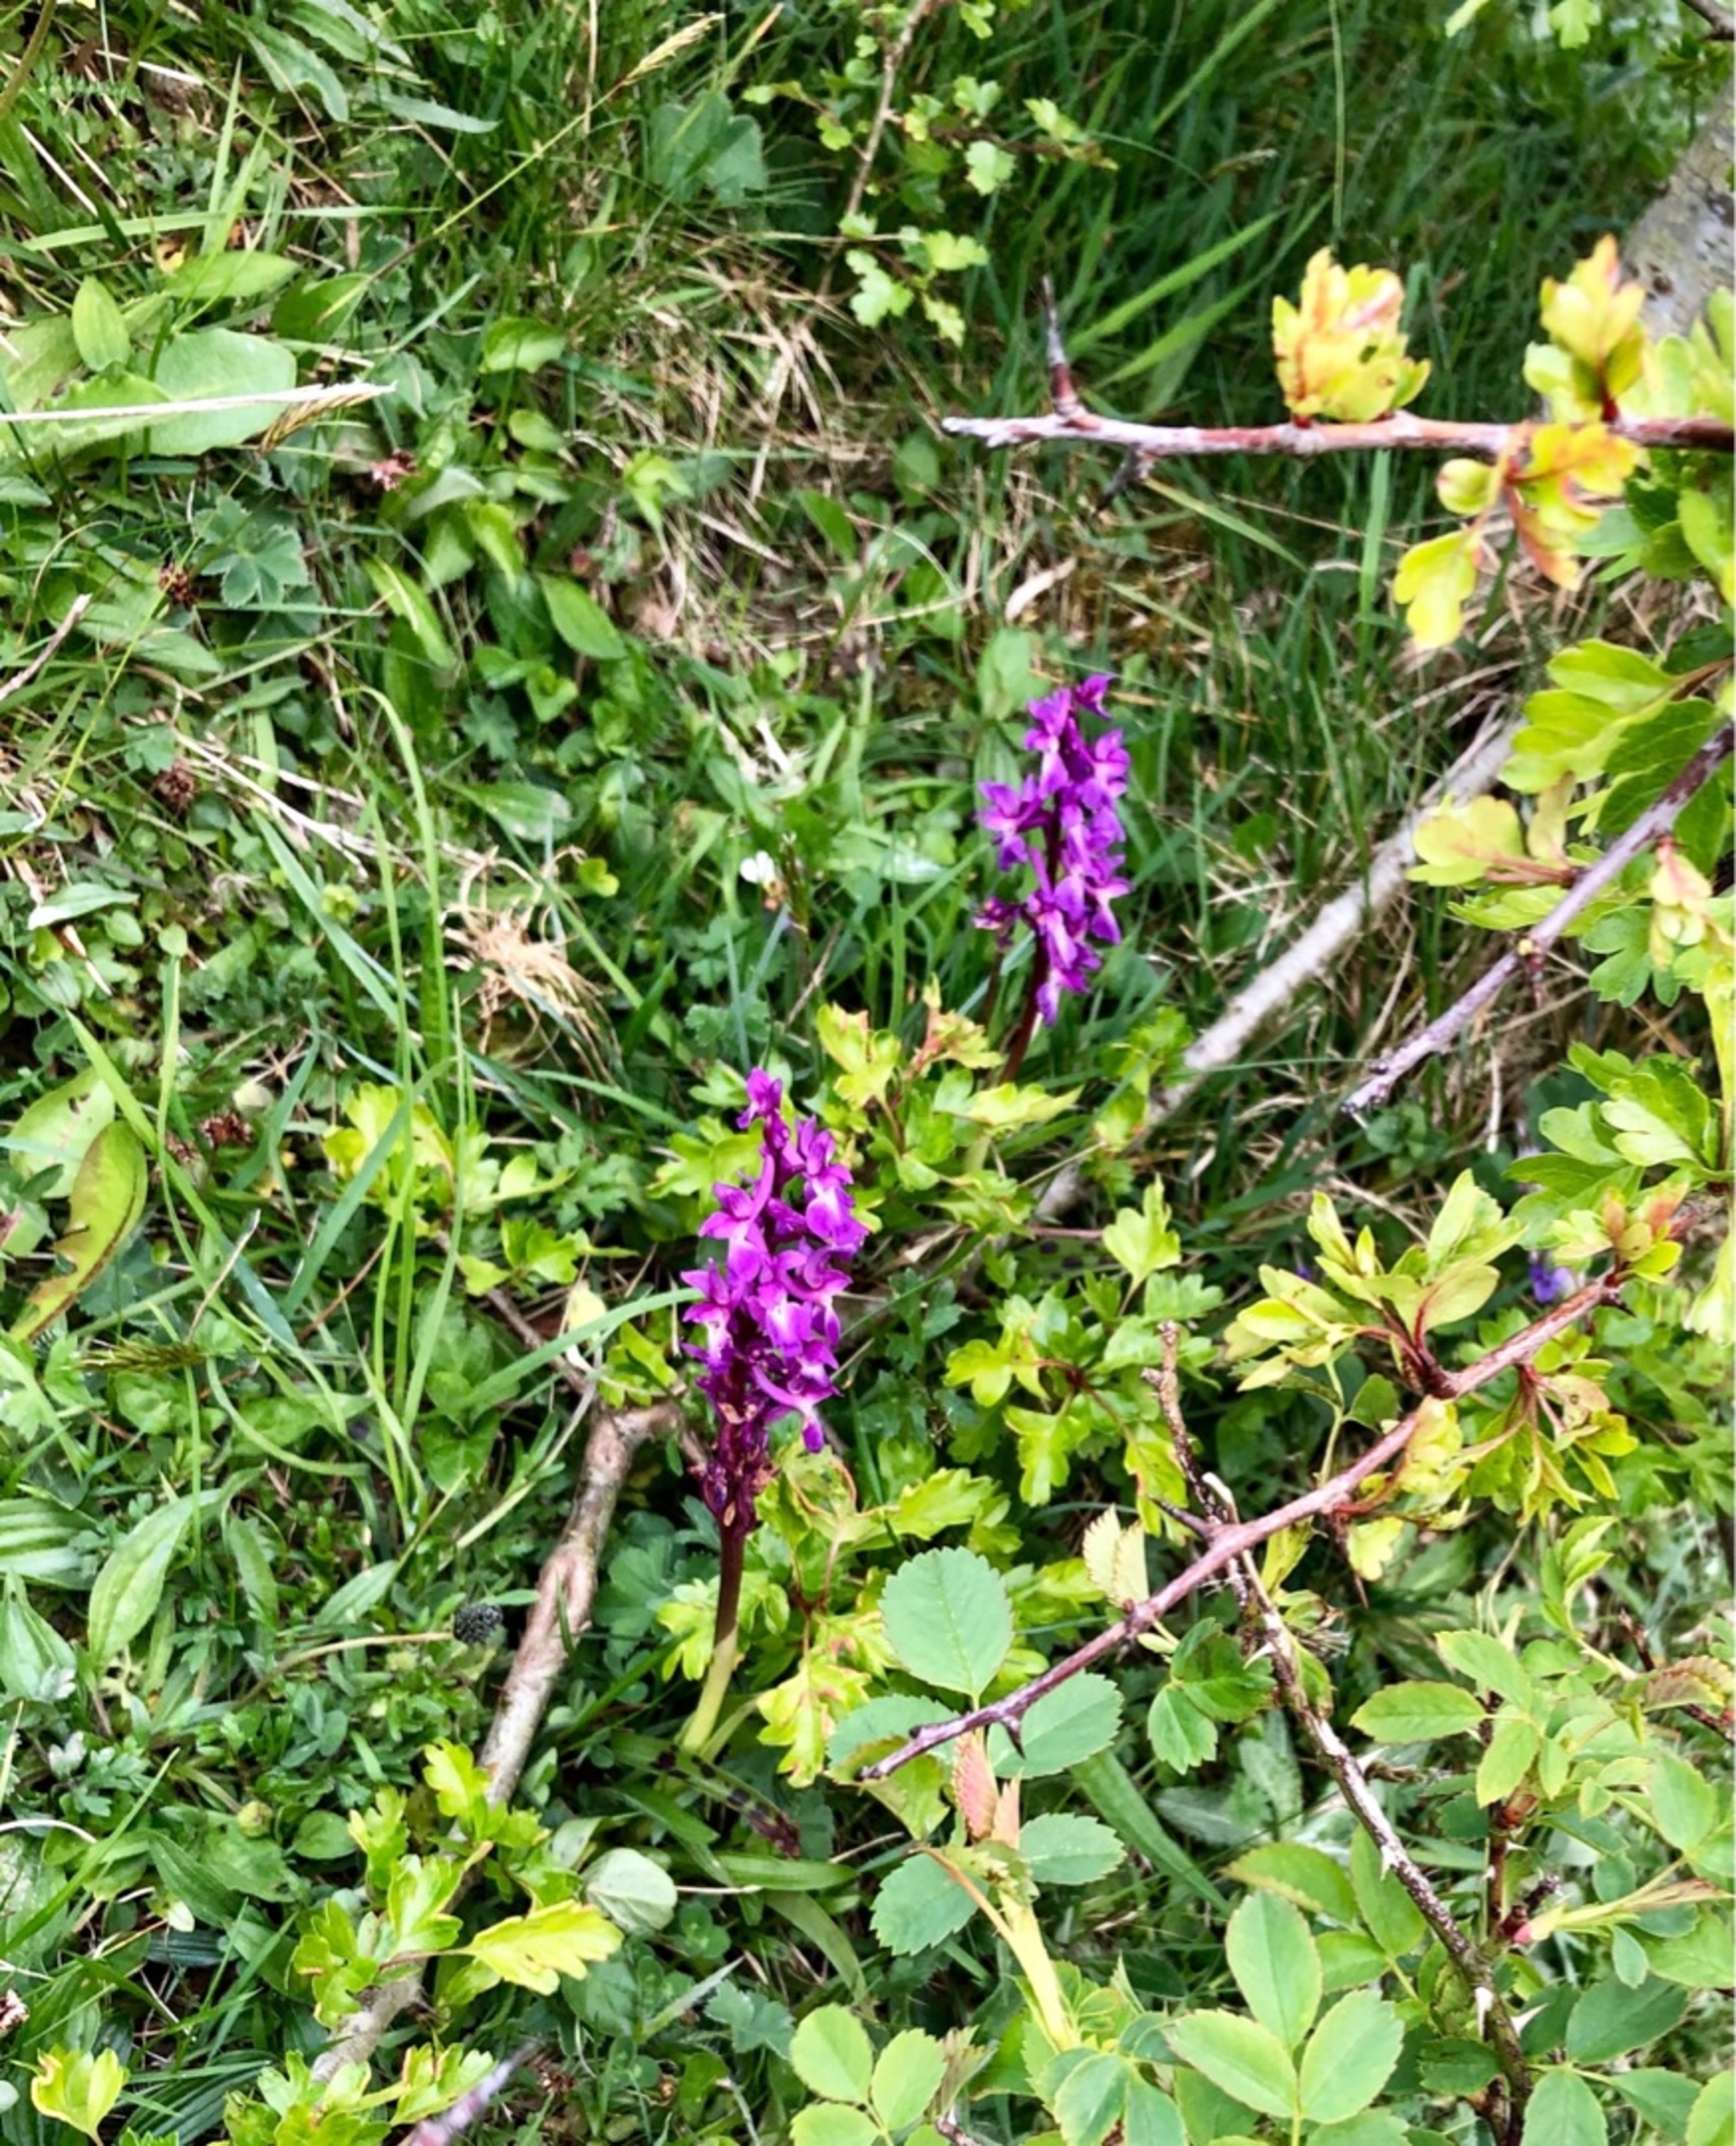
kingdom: Plantae
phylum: Tracheophyta
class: Liliopsida
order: Asparagales
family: Orchidaceae
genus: Orchis
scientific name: Orchis mascula
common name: Tyndakset gøgeurt
